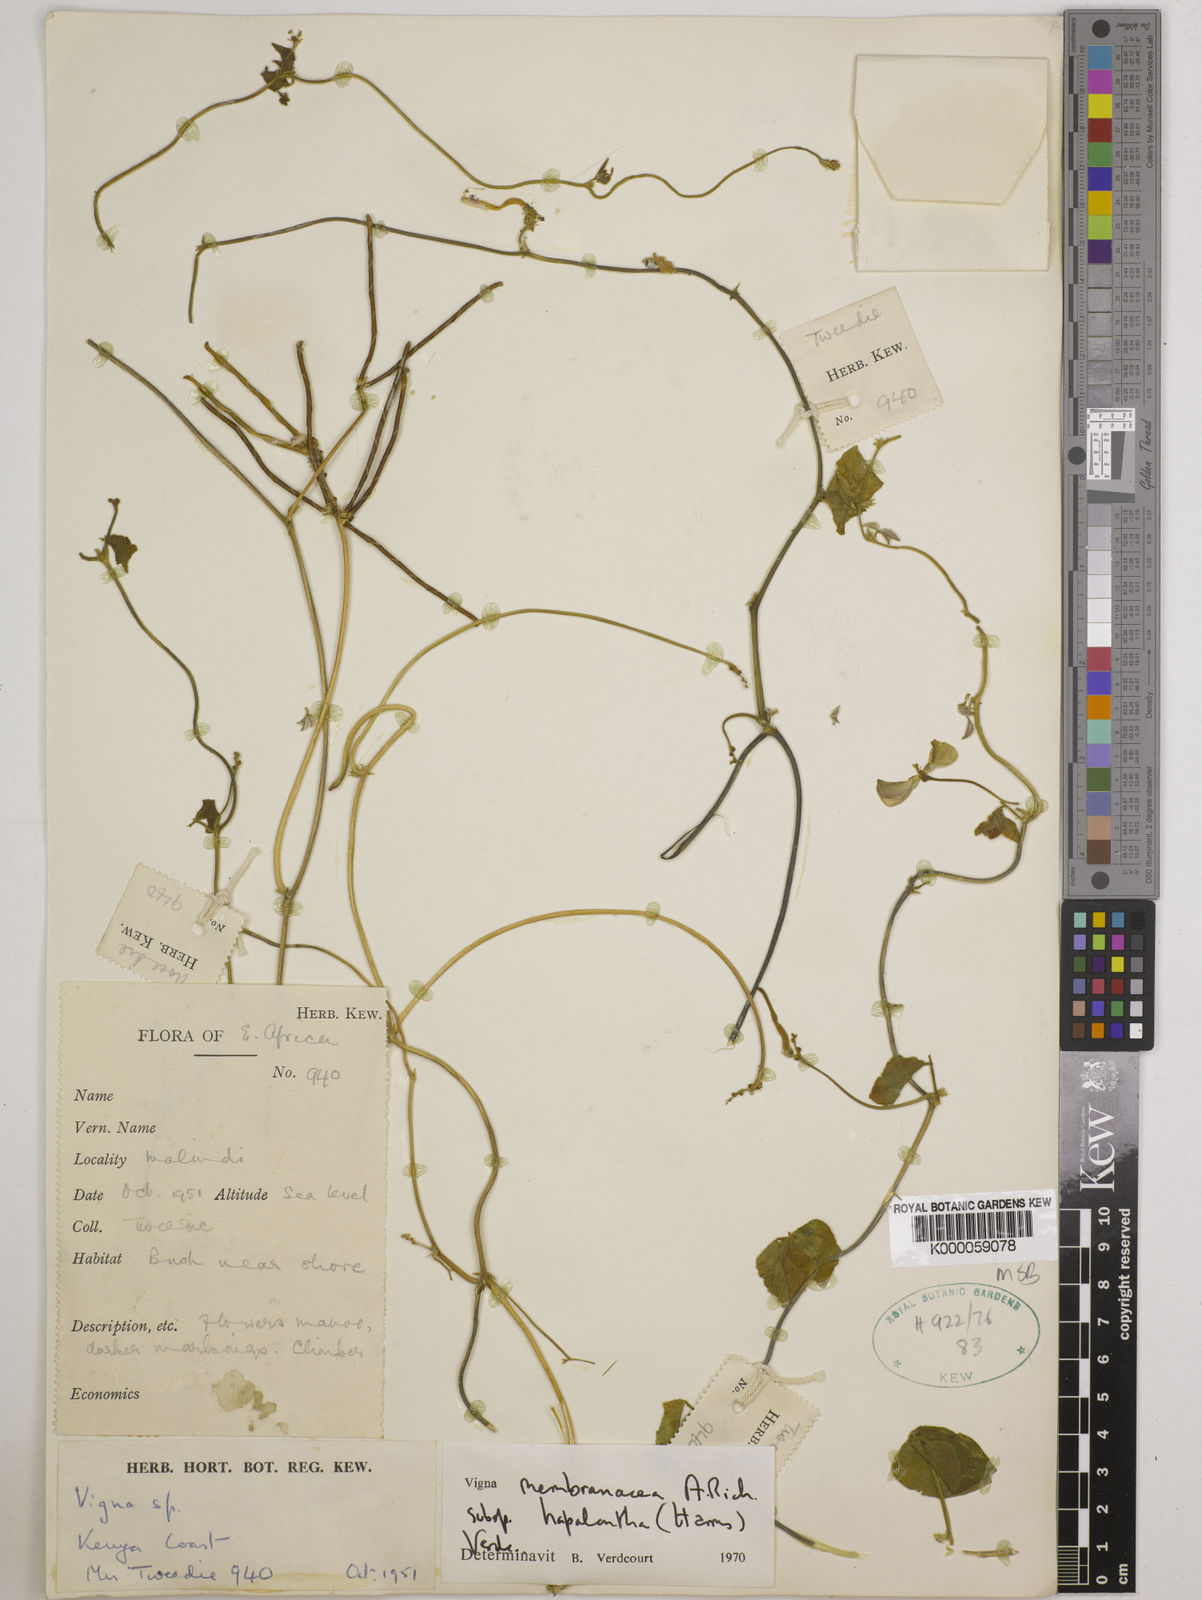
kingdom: Plantae
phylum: Tracheophyta
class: Magnoliopsida
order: Fabales
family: Fabaceae
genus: Vigna
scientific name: Vigna membranacea
